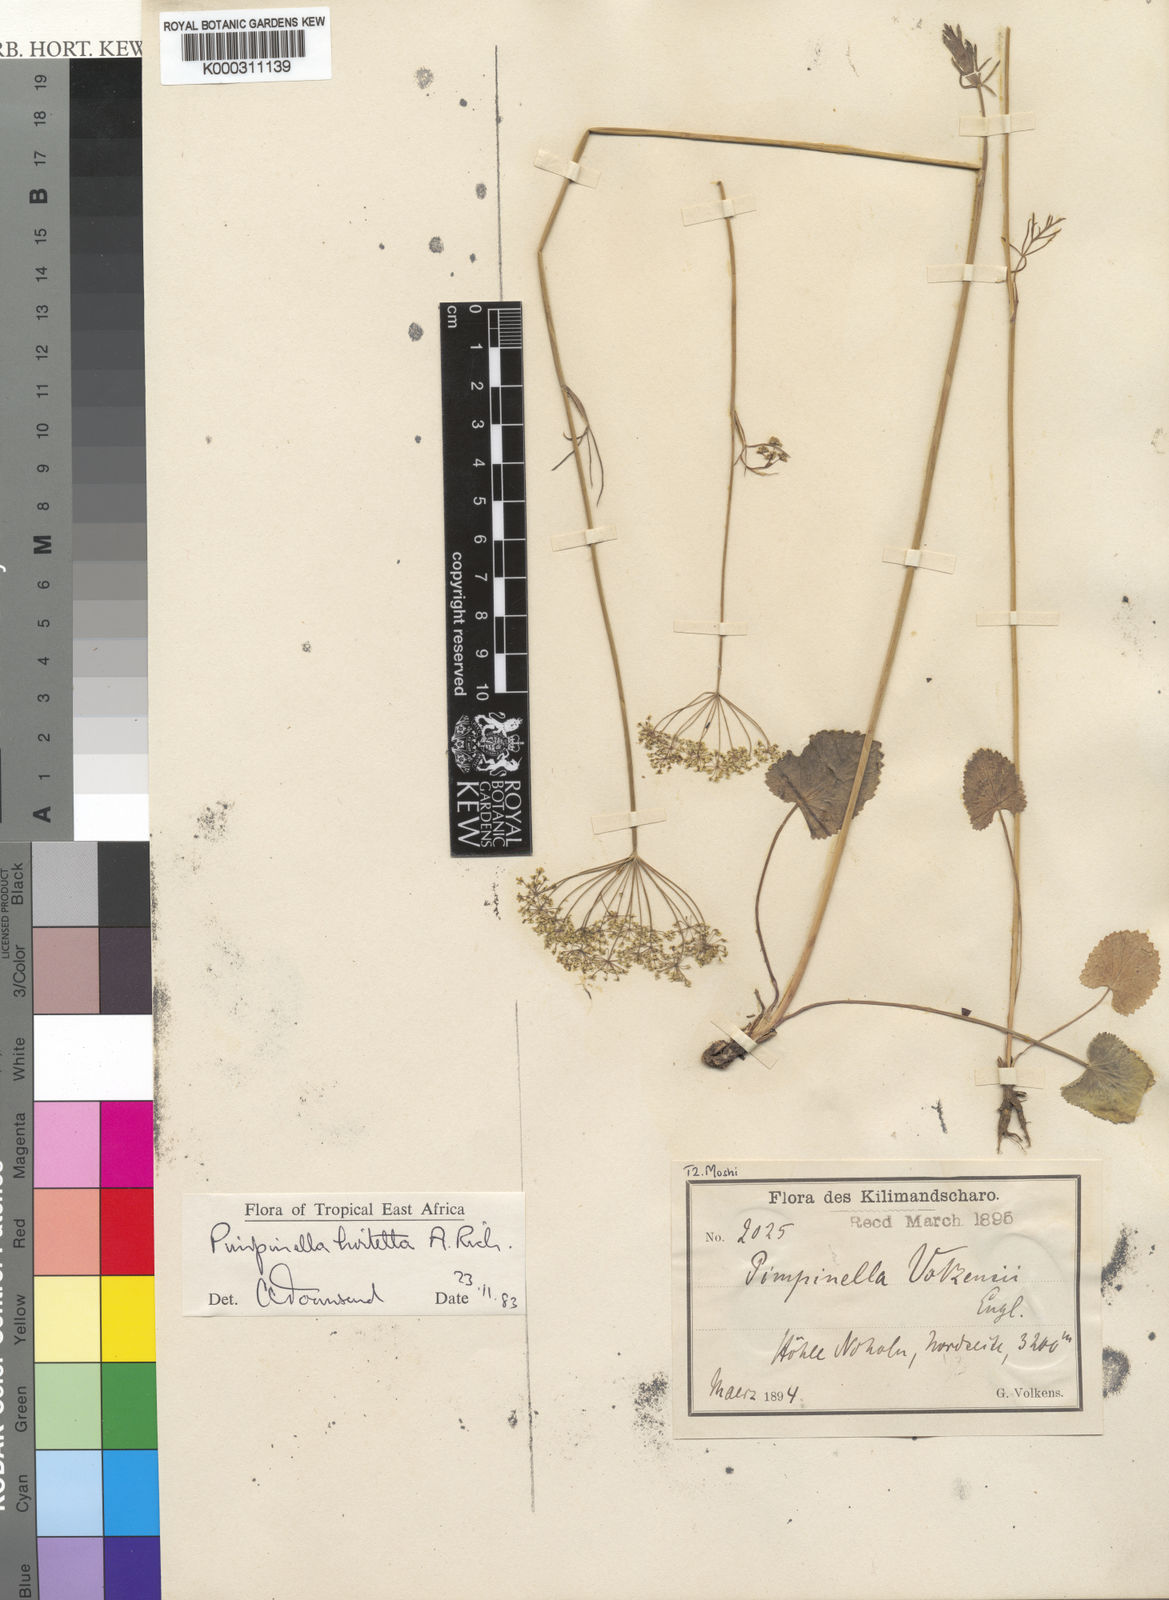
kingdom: Plantae
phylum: Tracheophyta
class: Magnoliopsida
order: Apiales
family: Apiaceae
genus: Pimpinella
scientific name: Pimpinella hirtella
